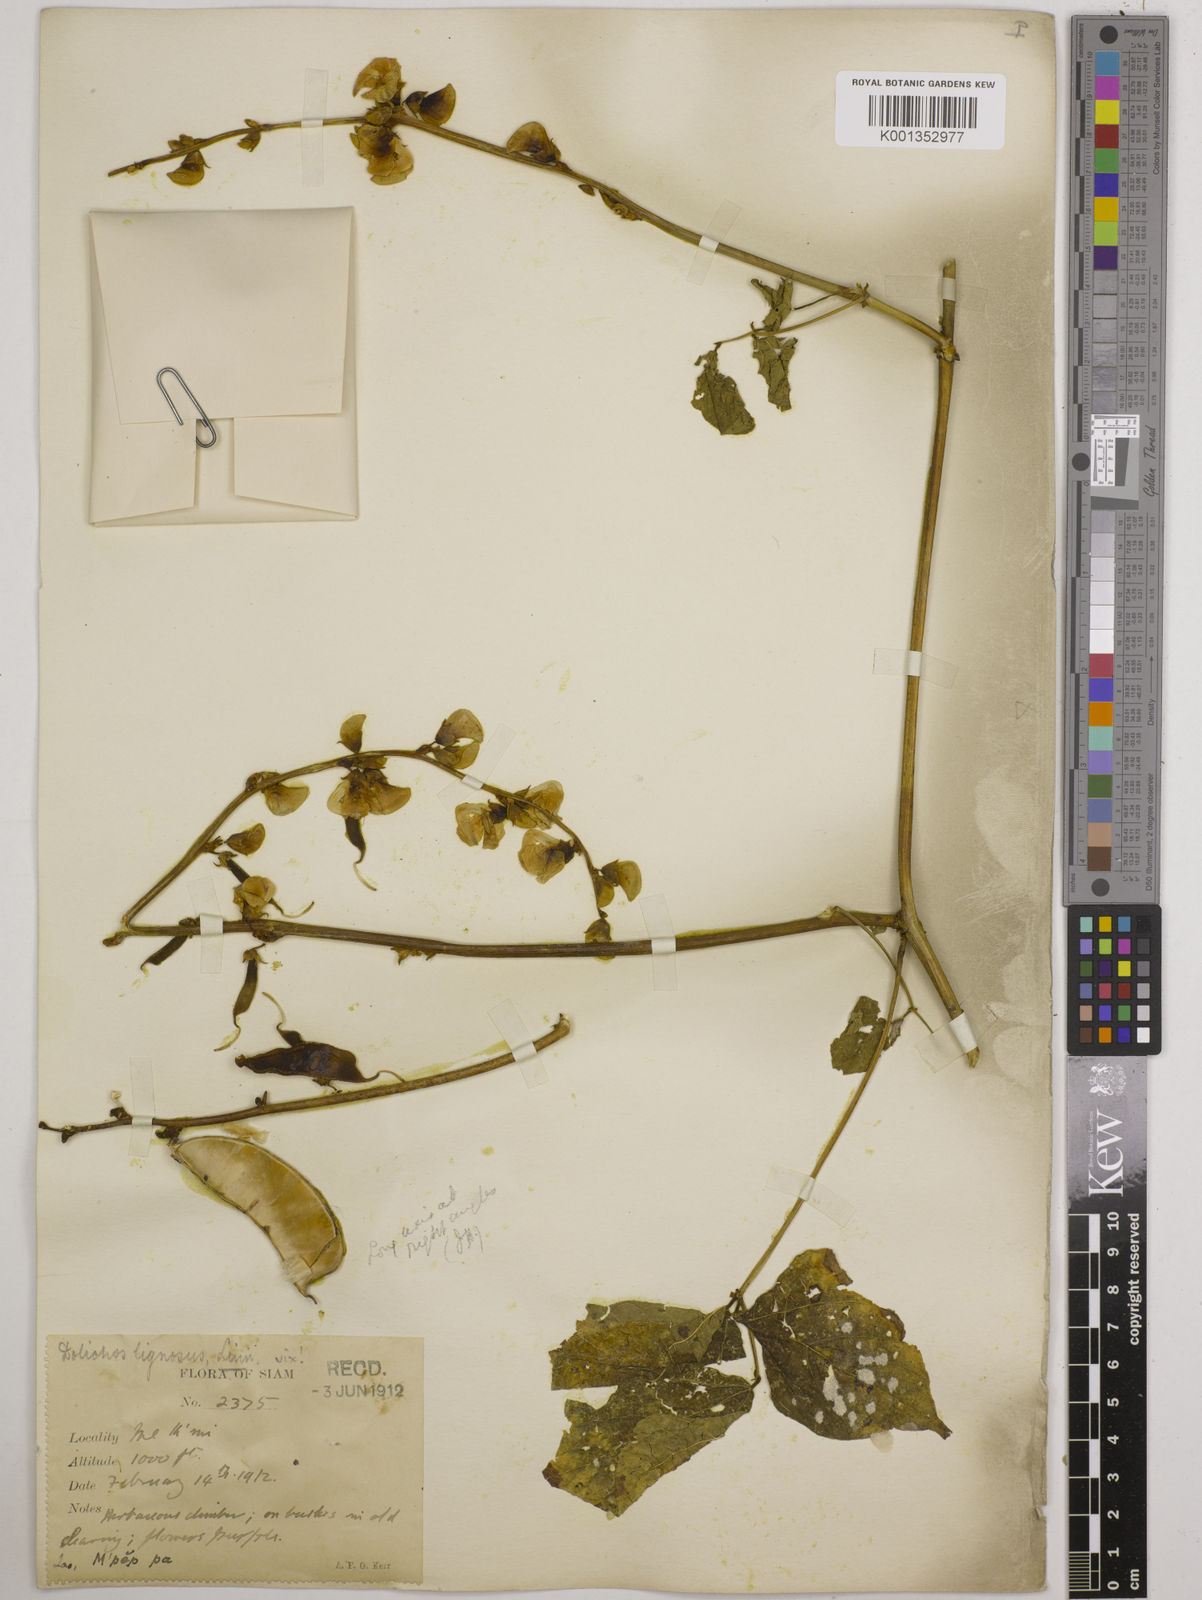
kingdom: Plantae
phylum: Tracheophyta
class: Magnoliopsida
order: Fabales
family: Fabaceae
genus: Lablab
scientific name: Lablab purpureus
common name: Lablab-bean
